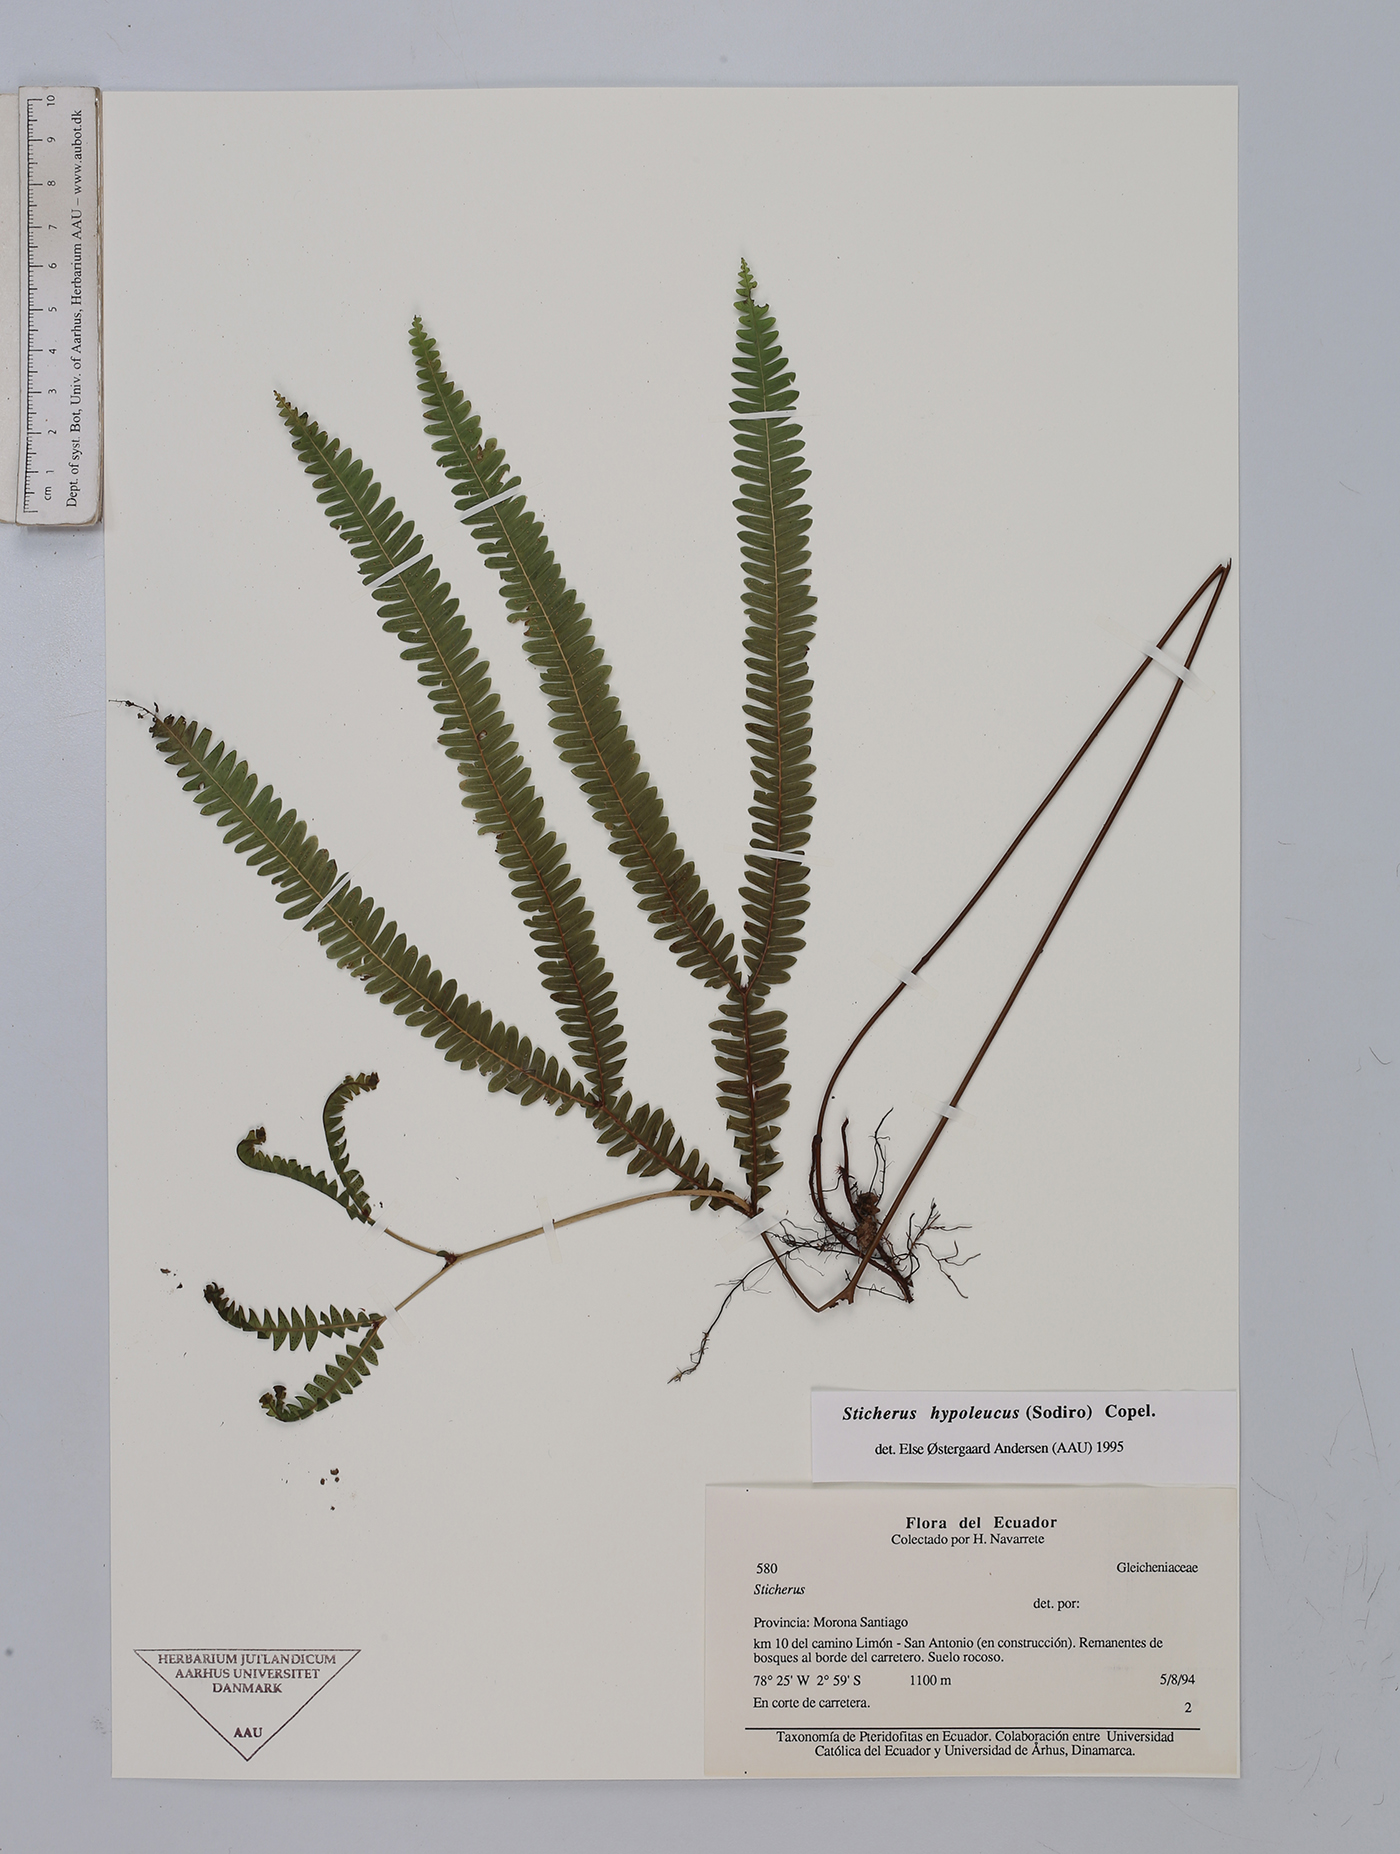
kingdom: Plantae
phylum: Tracheophyta
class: Polypodiopsida
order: Gleicheniales
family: Gleicheniaceae
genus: Sticherus
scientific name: Sticherus hypoleucus
